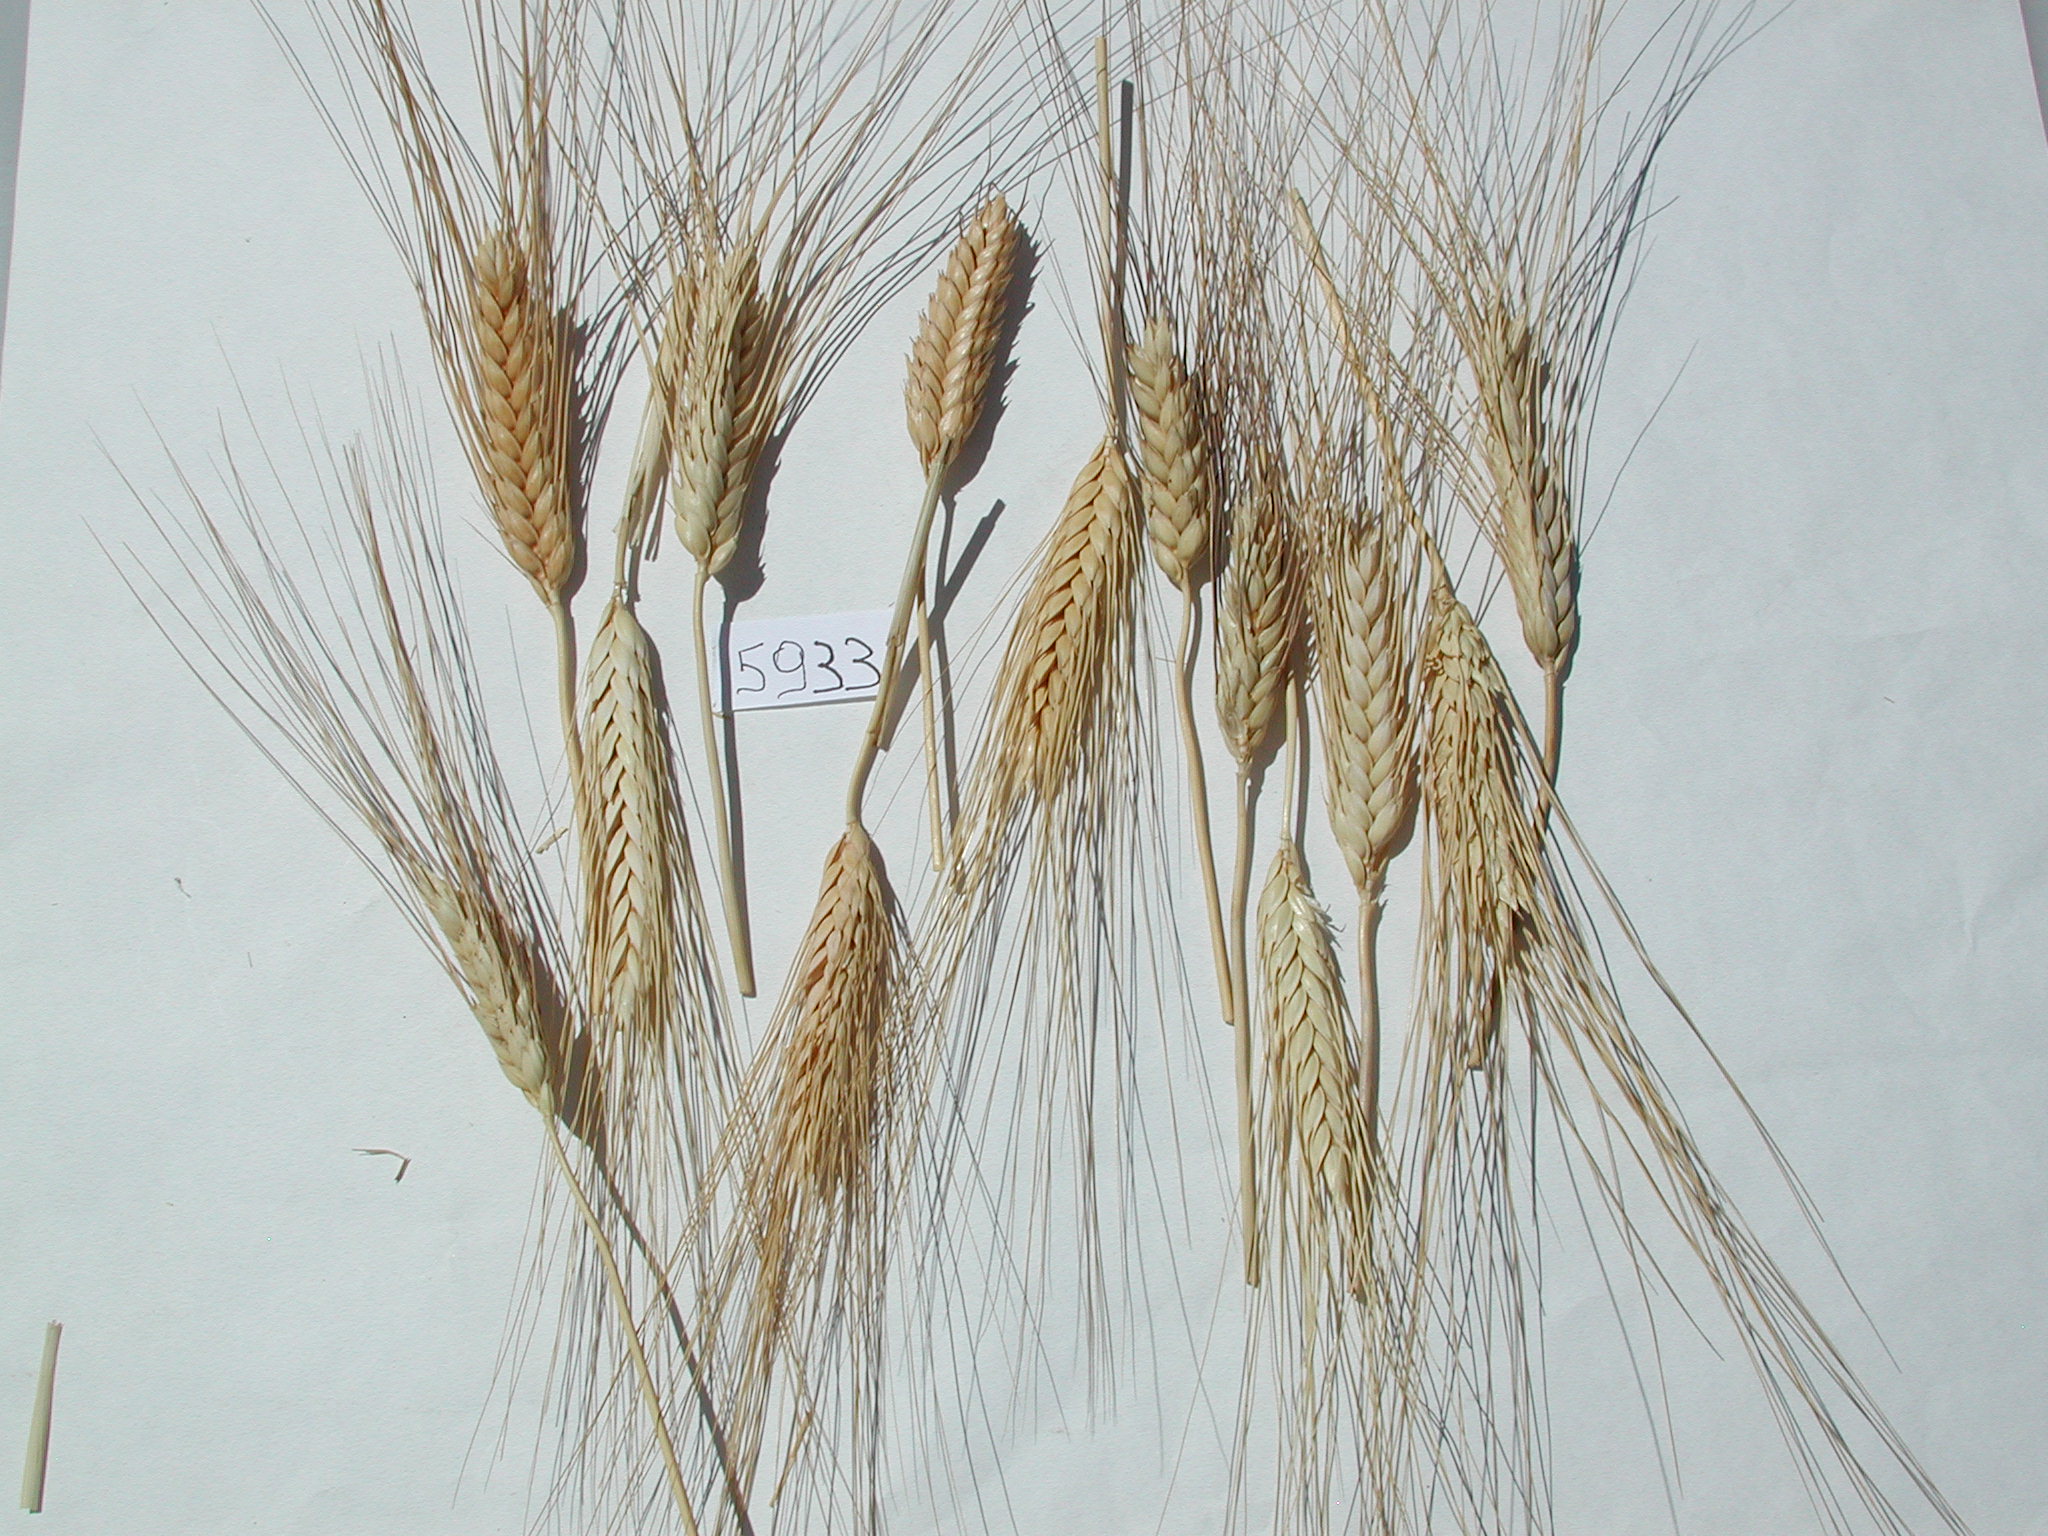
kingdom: Plantae
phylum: Tracheophyta
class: Liliopsida
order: Poales
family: Poaceae
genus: Triticum
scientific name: Triticum turgidum
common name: Wheat
